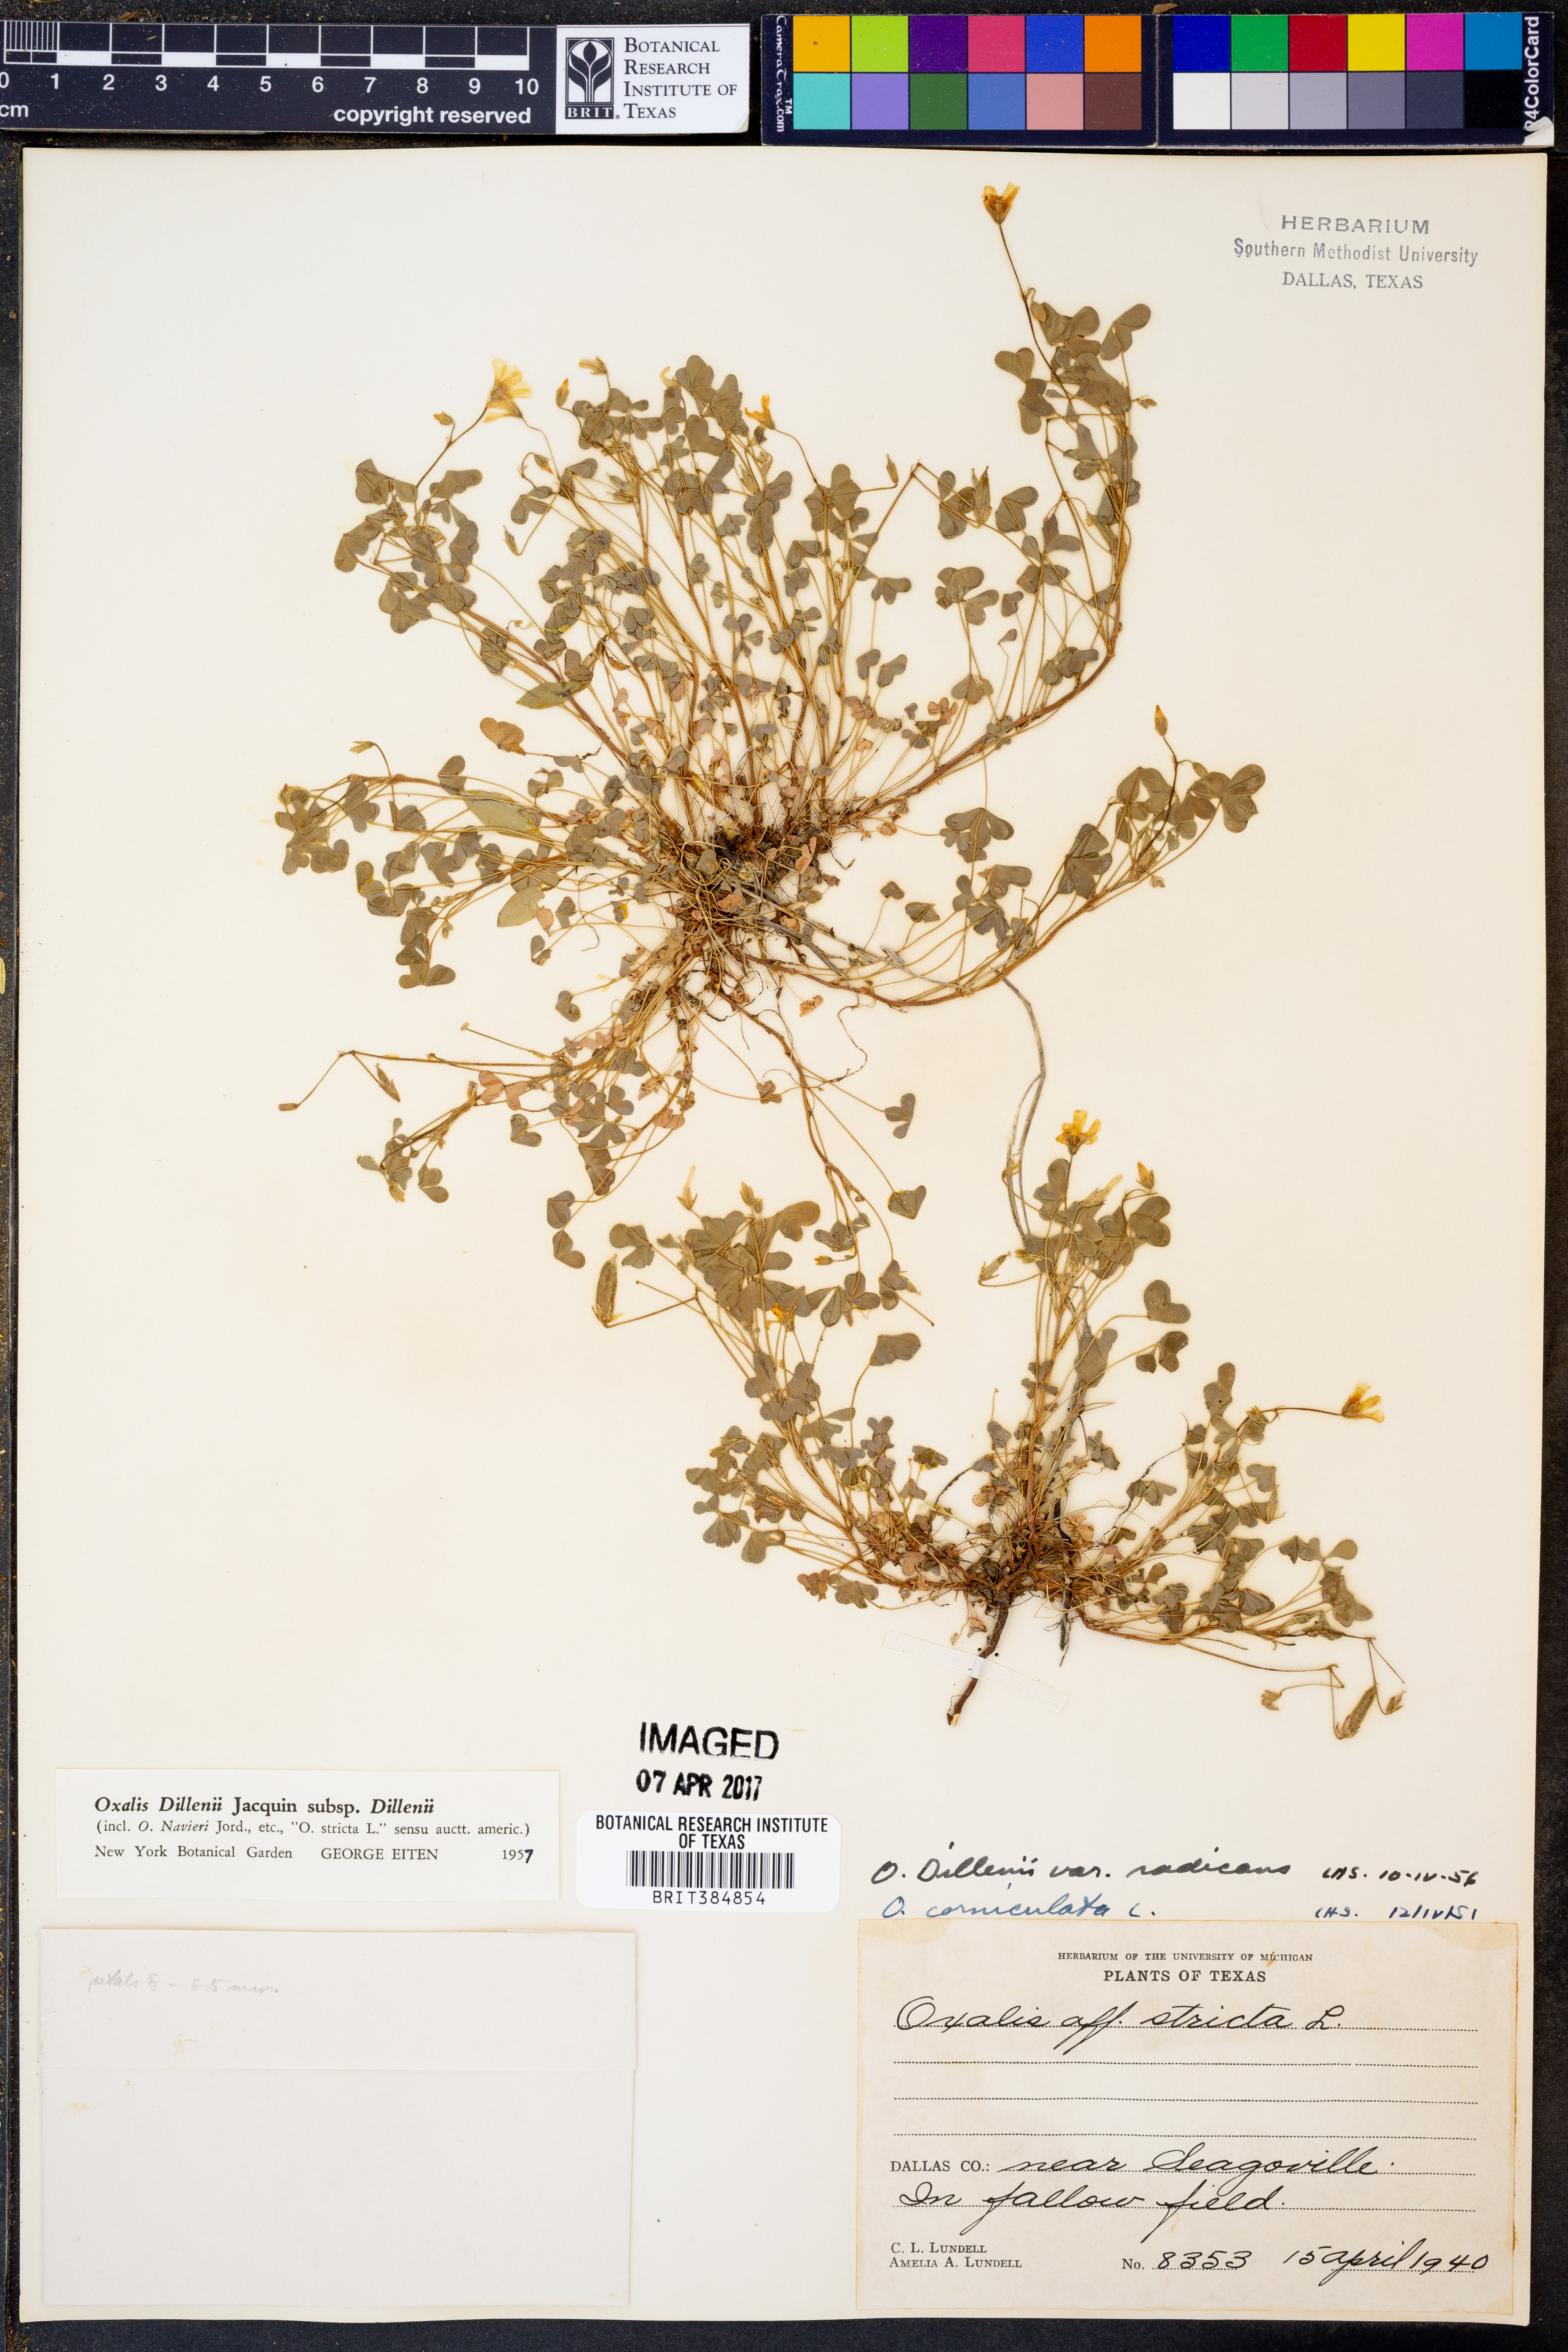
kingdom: Plantae
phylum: Tracheophyta
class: Magnoliopsida
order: Oxalidales
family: Oxalidaceae
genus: Oxalis
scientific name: Oxalis dillenii
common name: Sussex yellow-sorrel
